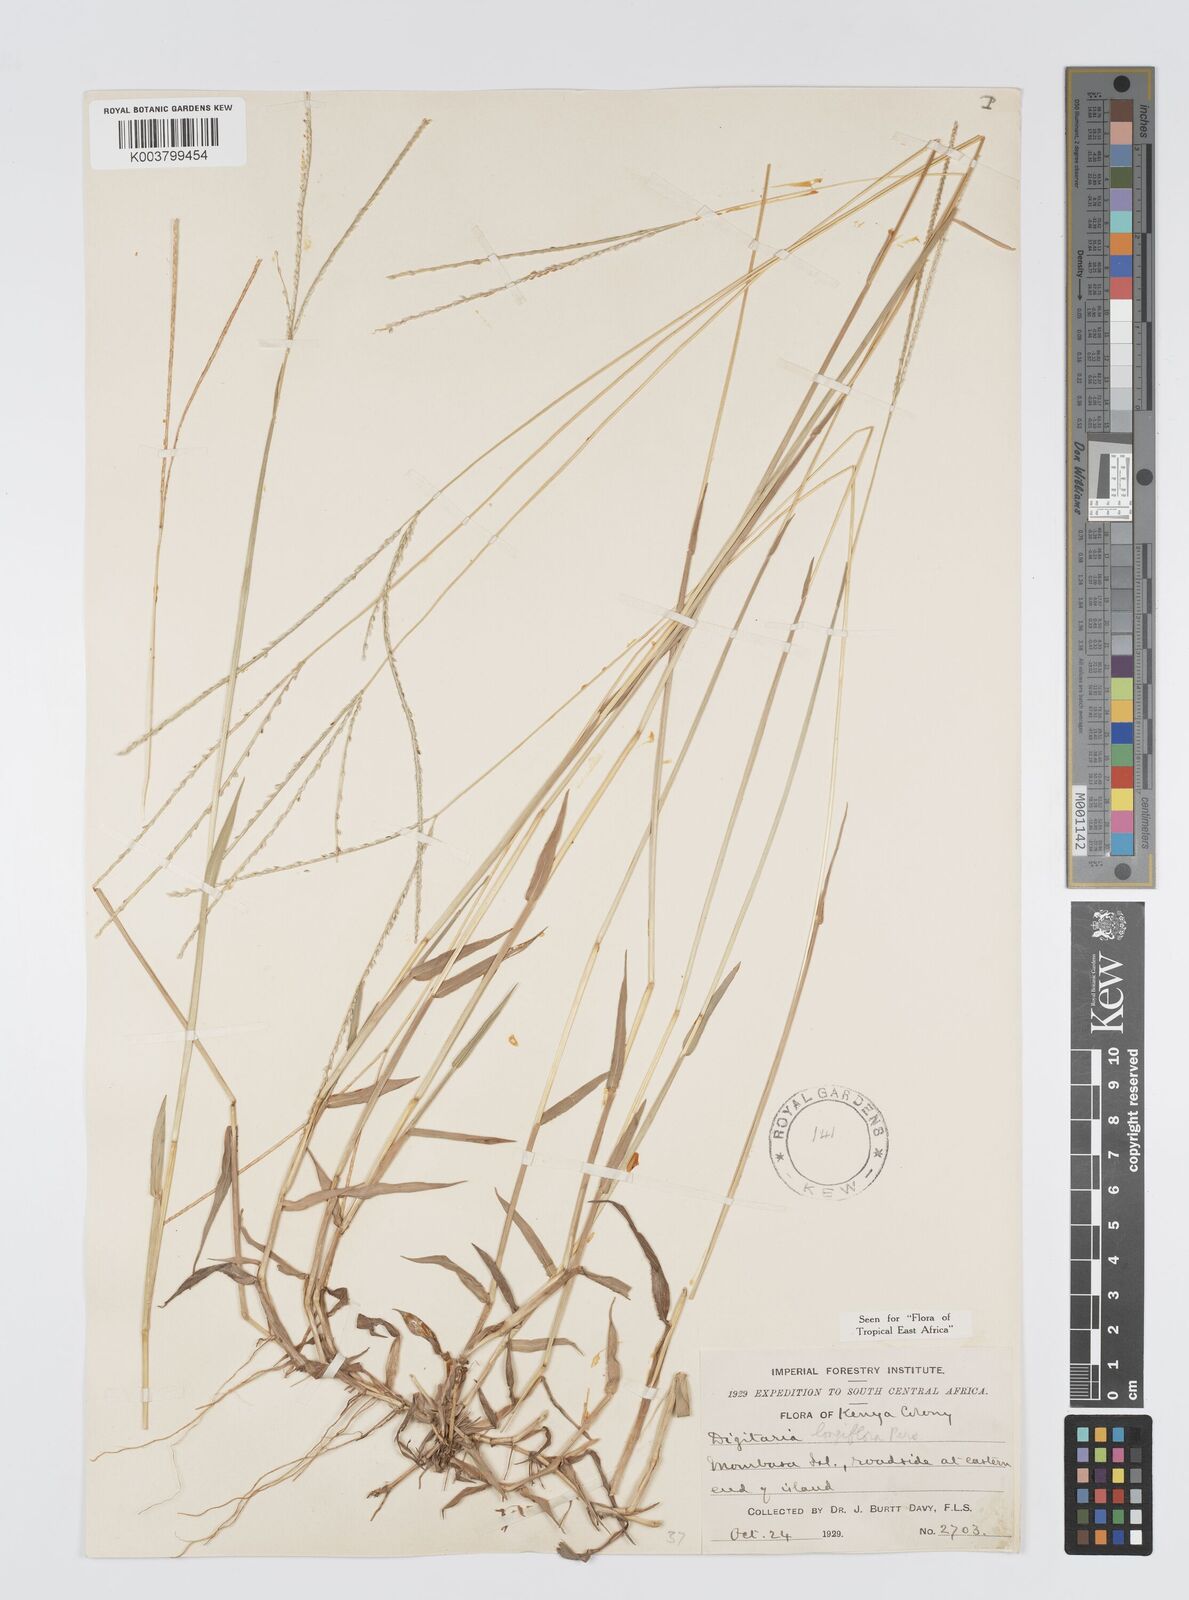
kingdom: Plantae
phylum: Tracheophyta
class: Liliopsida
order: Poales
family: Poaceae
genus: Digitaria
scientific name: Digitaria argyrotricha
